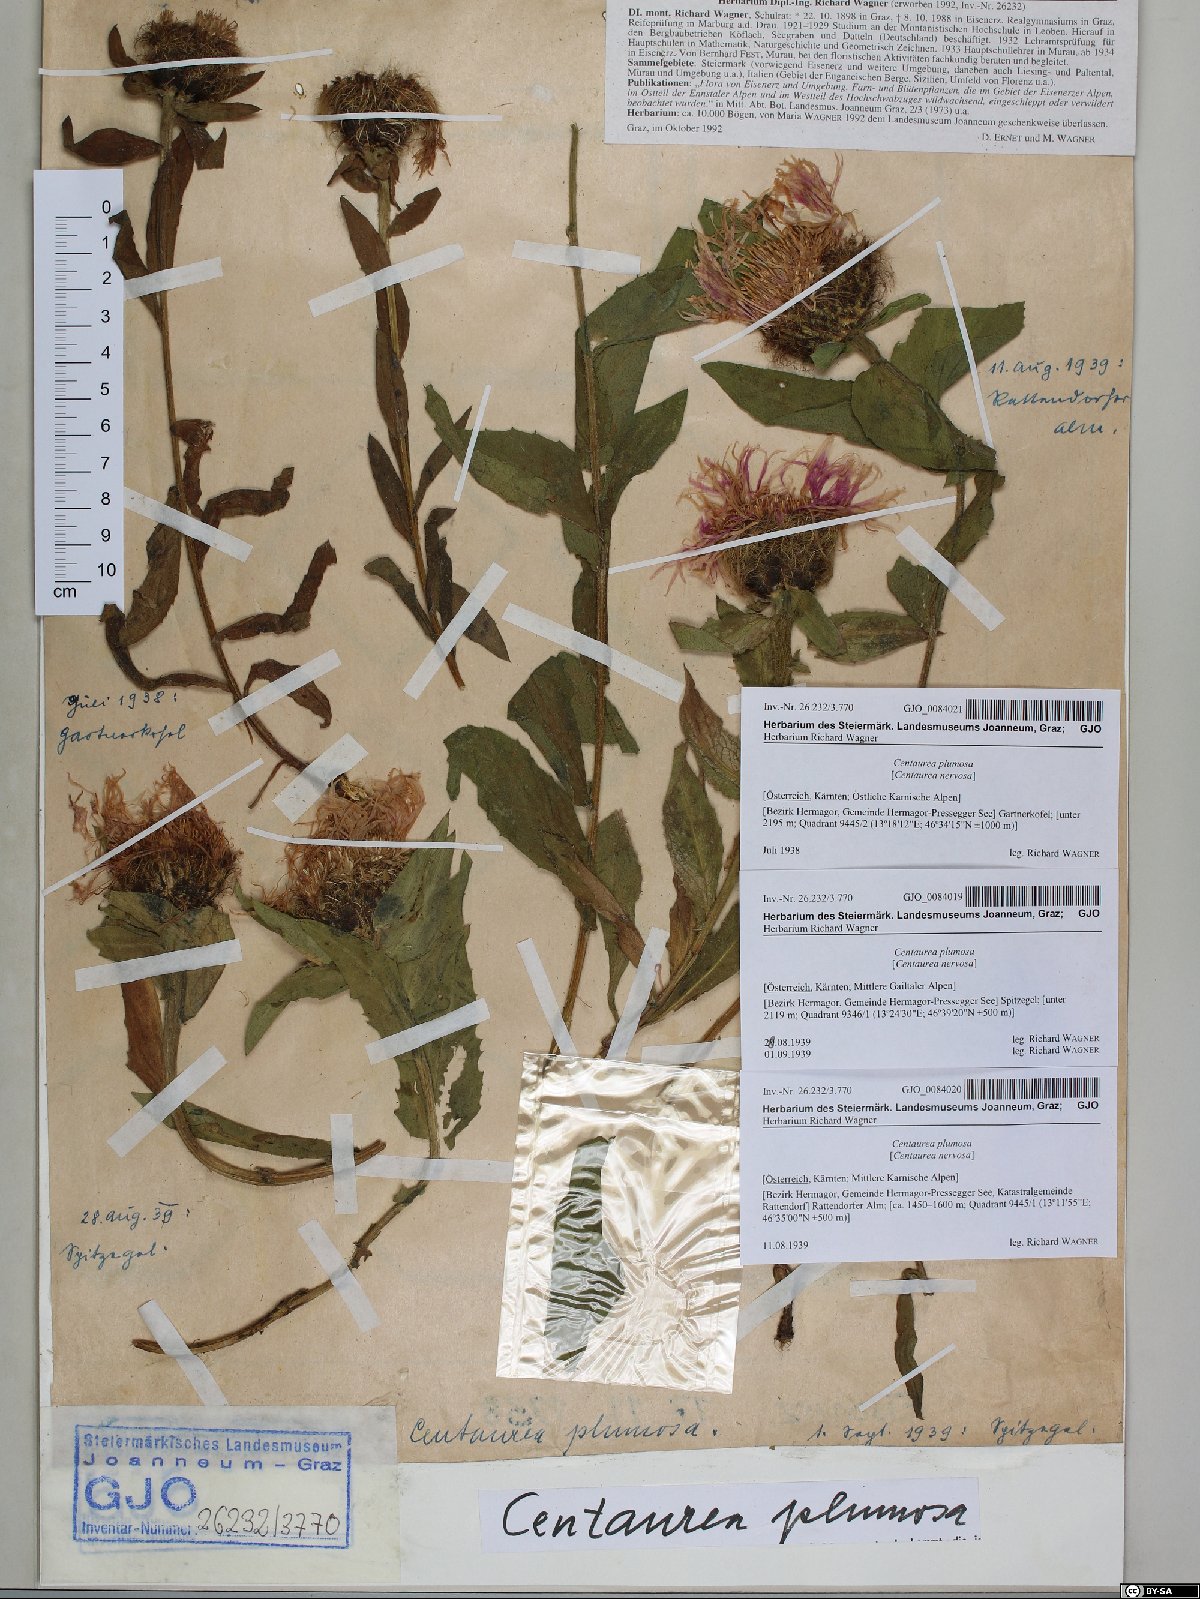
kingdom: Plantae
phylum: Tracheophyta
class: Magnoliopsida
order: Asterales
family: Asteraceae
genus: Centaurea
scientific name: Centaurea nervosa
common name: Singleflower knapweed
